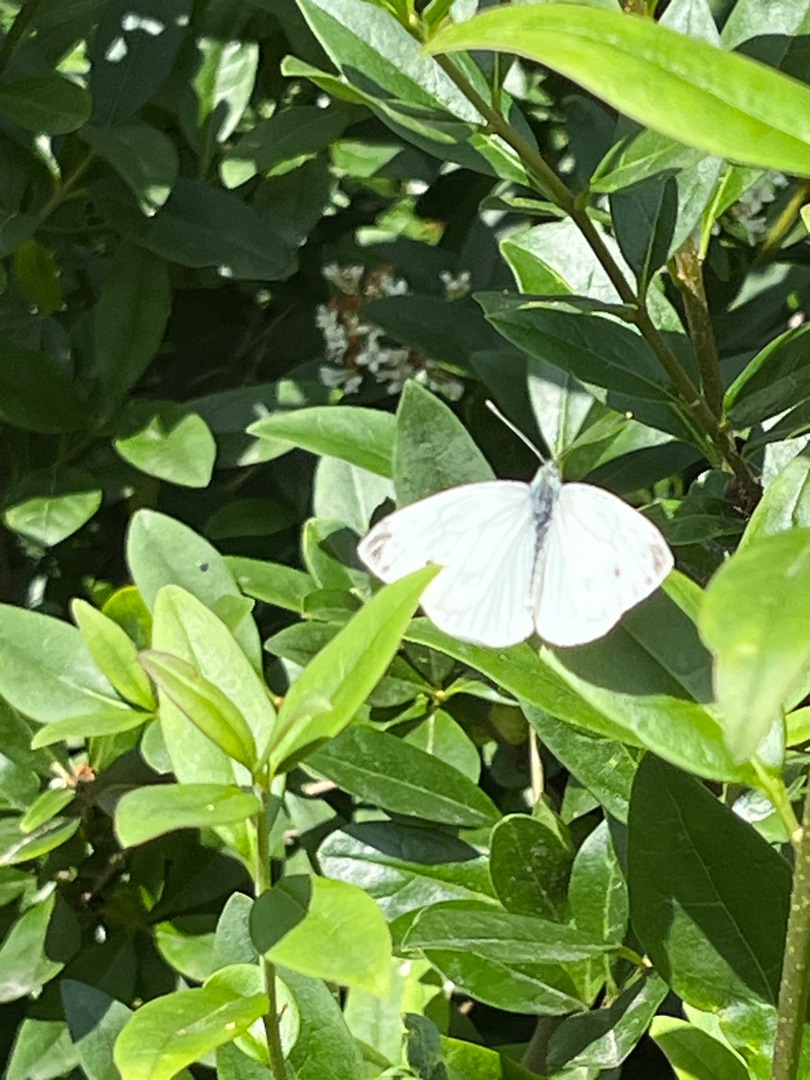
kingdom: Animalia
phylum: Arthropoda
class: Insecta
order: Lepidoptera
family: Pieridae
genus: Pieris
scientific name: Pieris napi
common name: Grønåret kålsommerfugl
